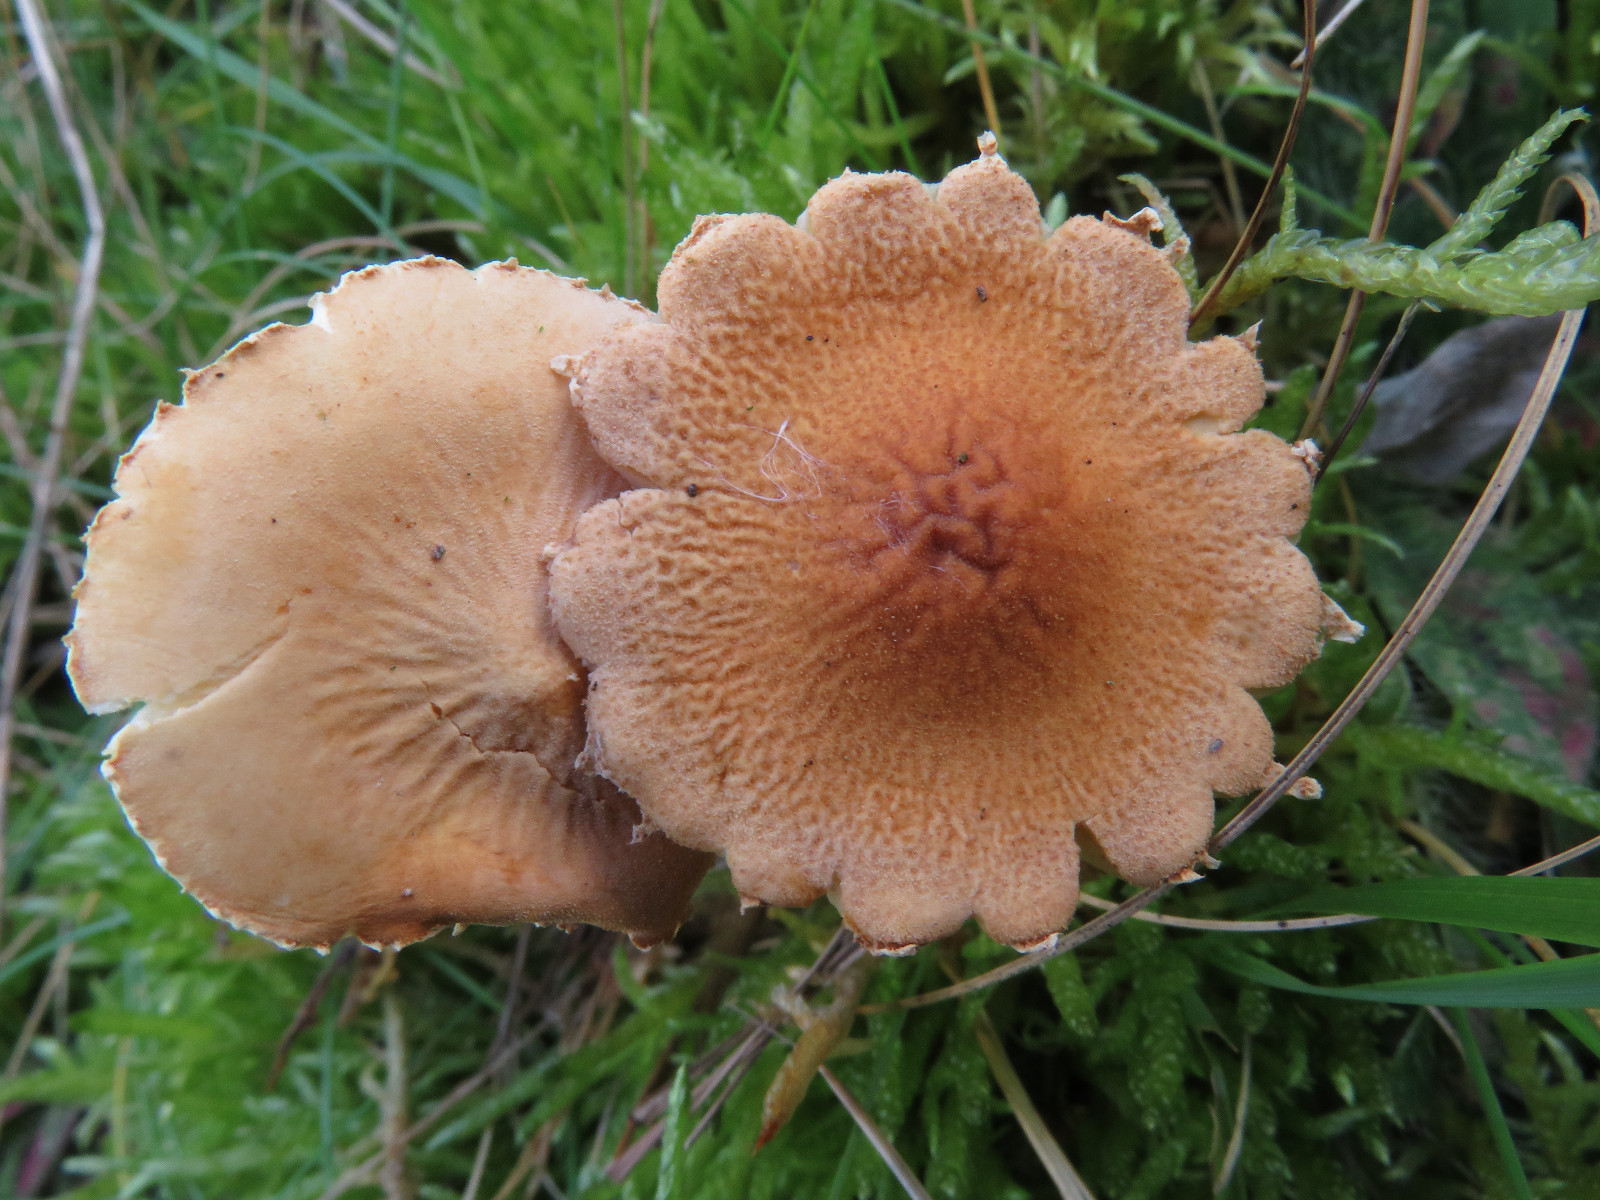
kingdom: Fungi
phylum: Basidiomycota
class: Agaricomycetes
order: Agaricales
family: Tricholomataceae
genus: Cystoderma
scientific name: Cystoderma
